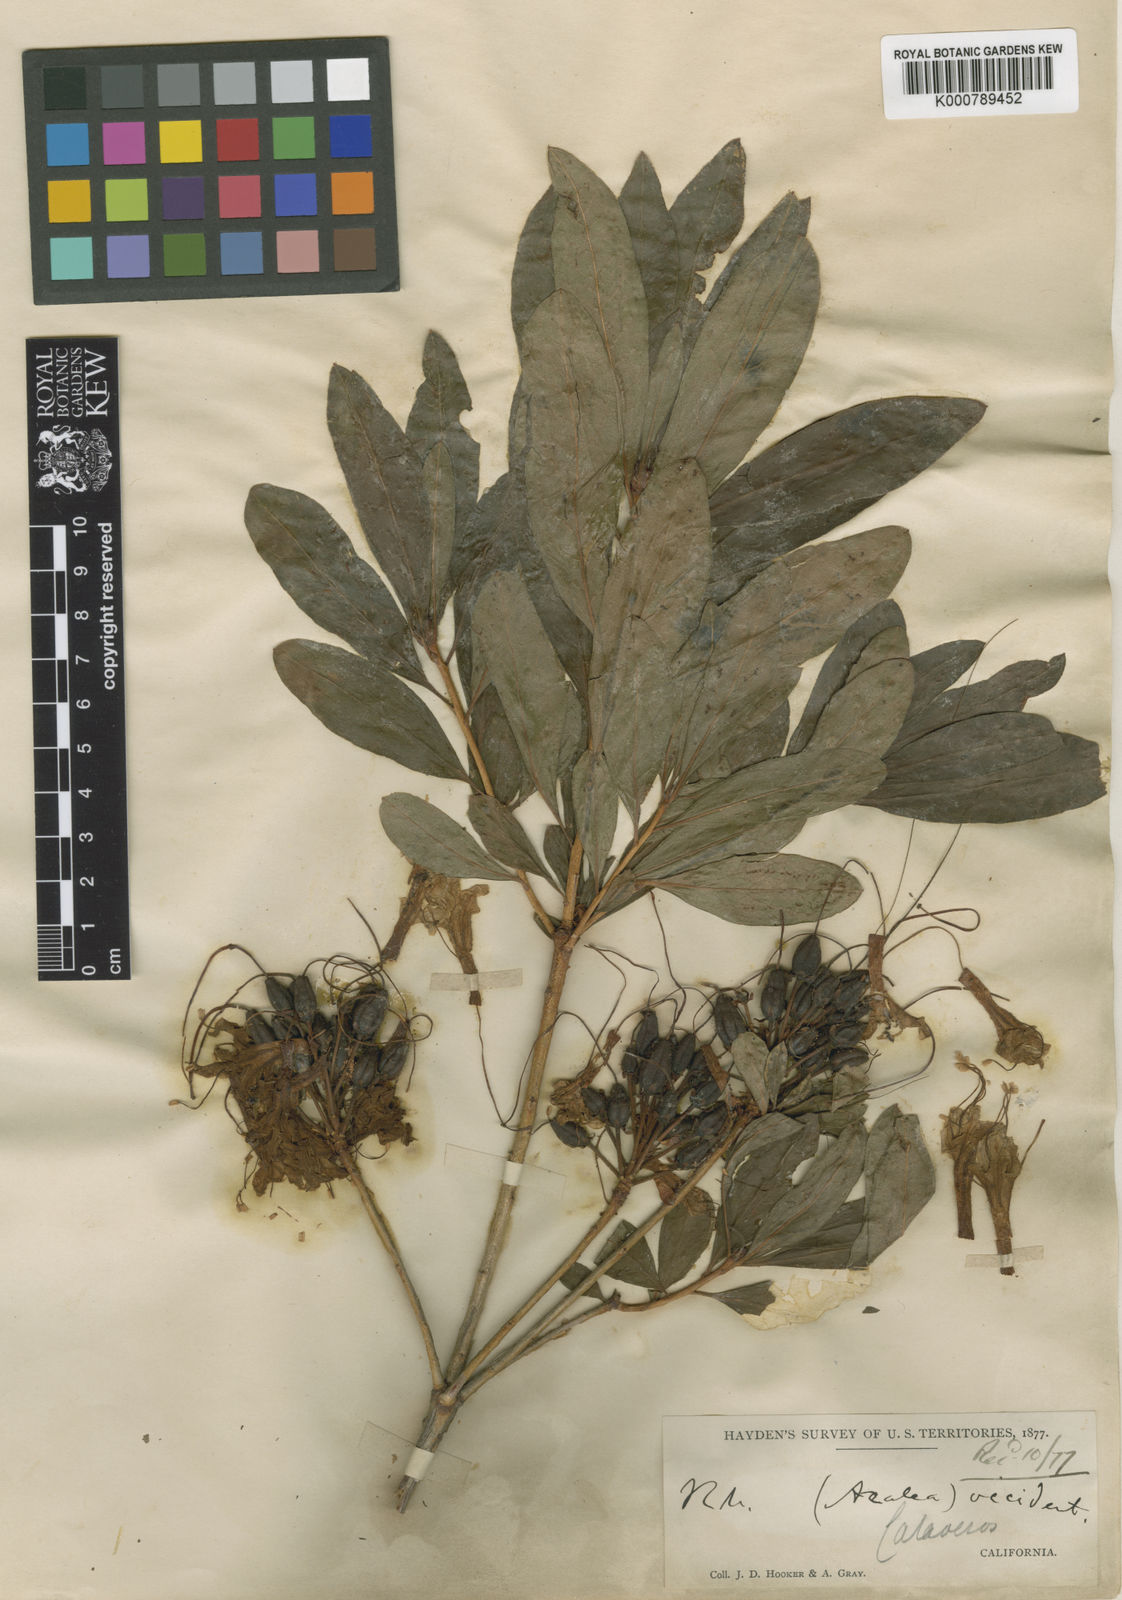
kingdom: Plantae
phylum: Tracheophyta
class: Magnoliopsida
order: Ericales
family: Ericaceae
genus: Rhododendron
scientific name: Rhododendron
